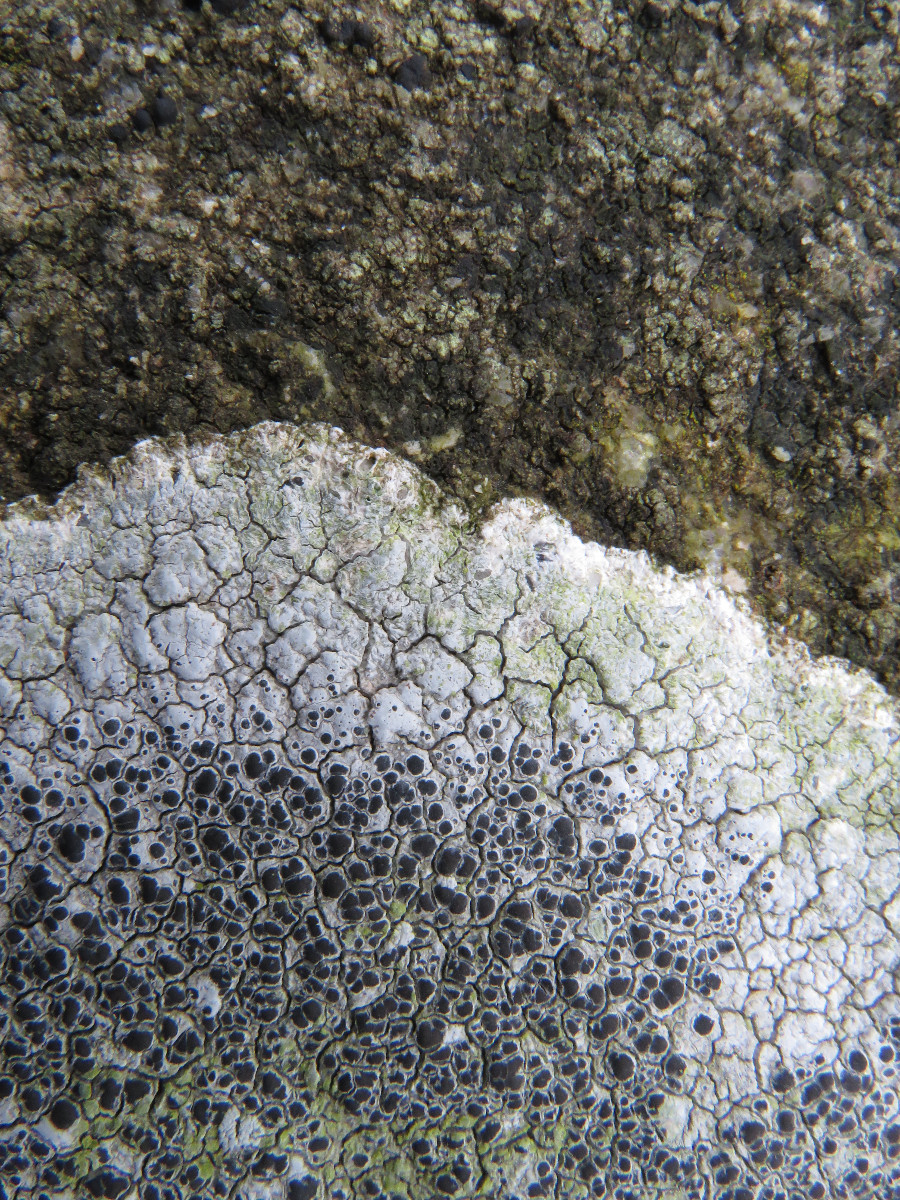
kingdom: Fungi
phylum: Ascomycota
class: Lecanoromycetes
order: Lecanorales
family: Tephromelataceae
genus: Tephromela
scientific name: Tephromela atra
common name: sortfrugtet kantskivelav
